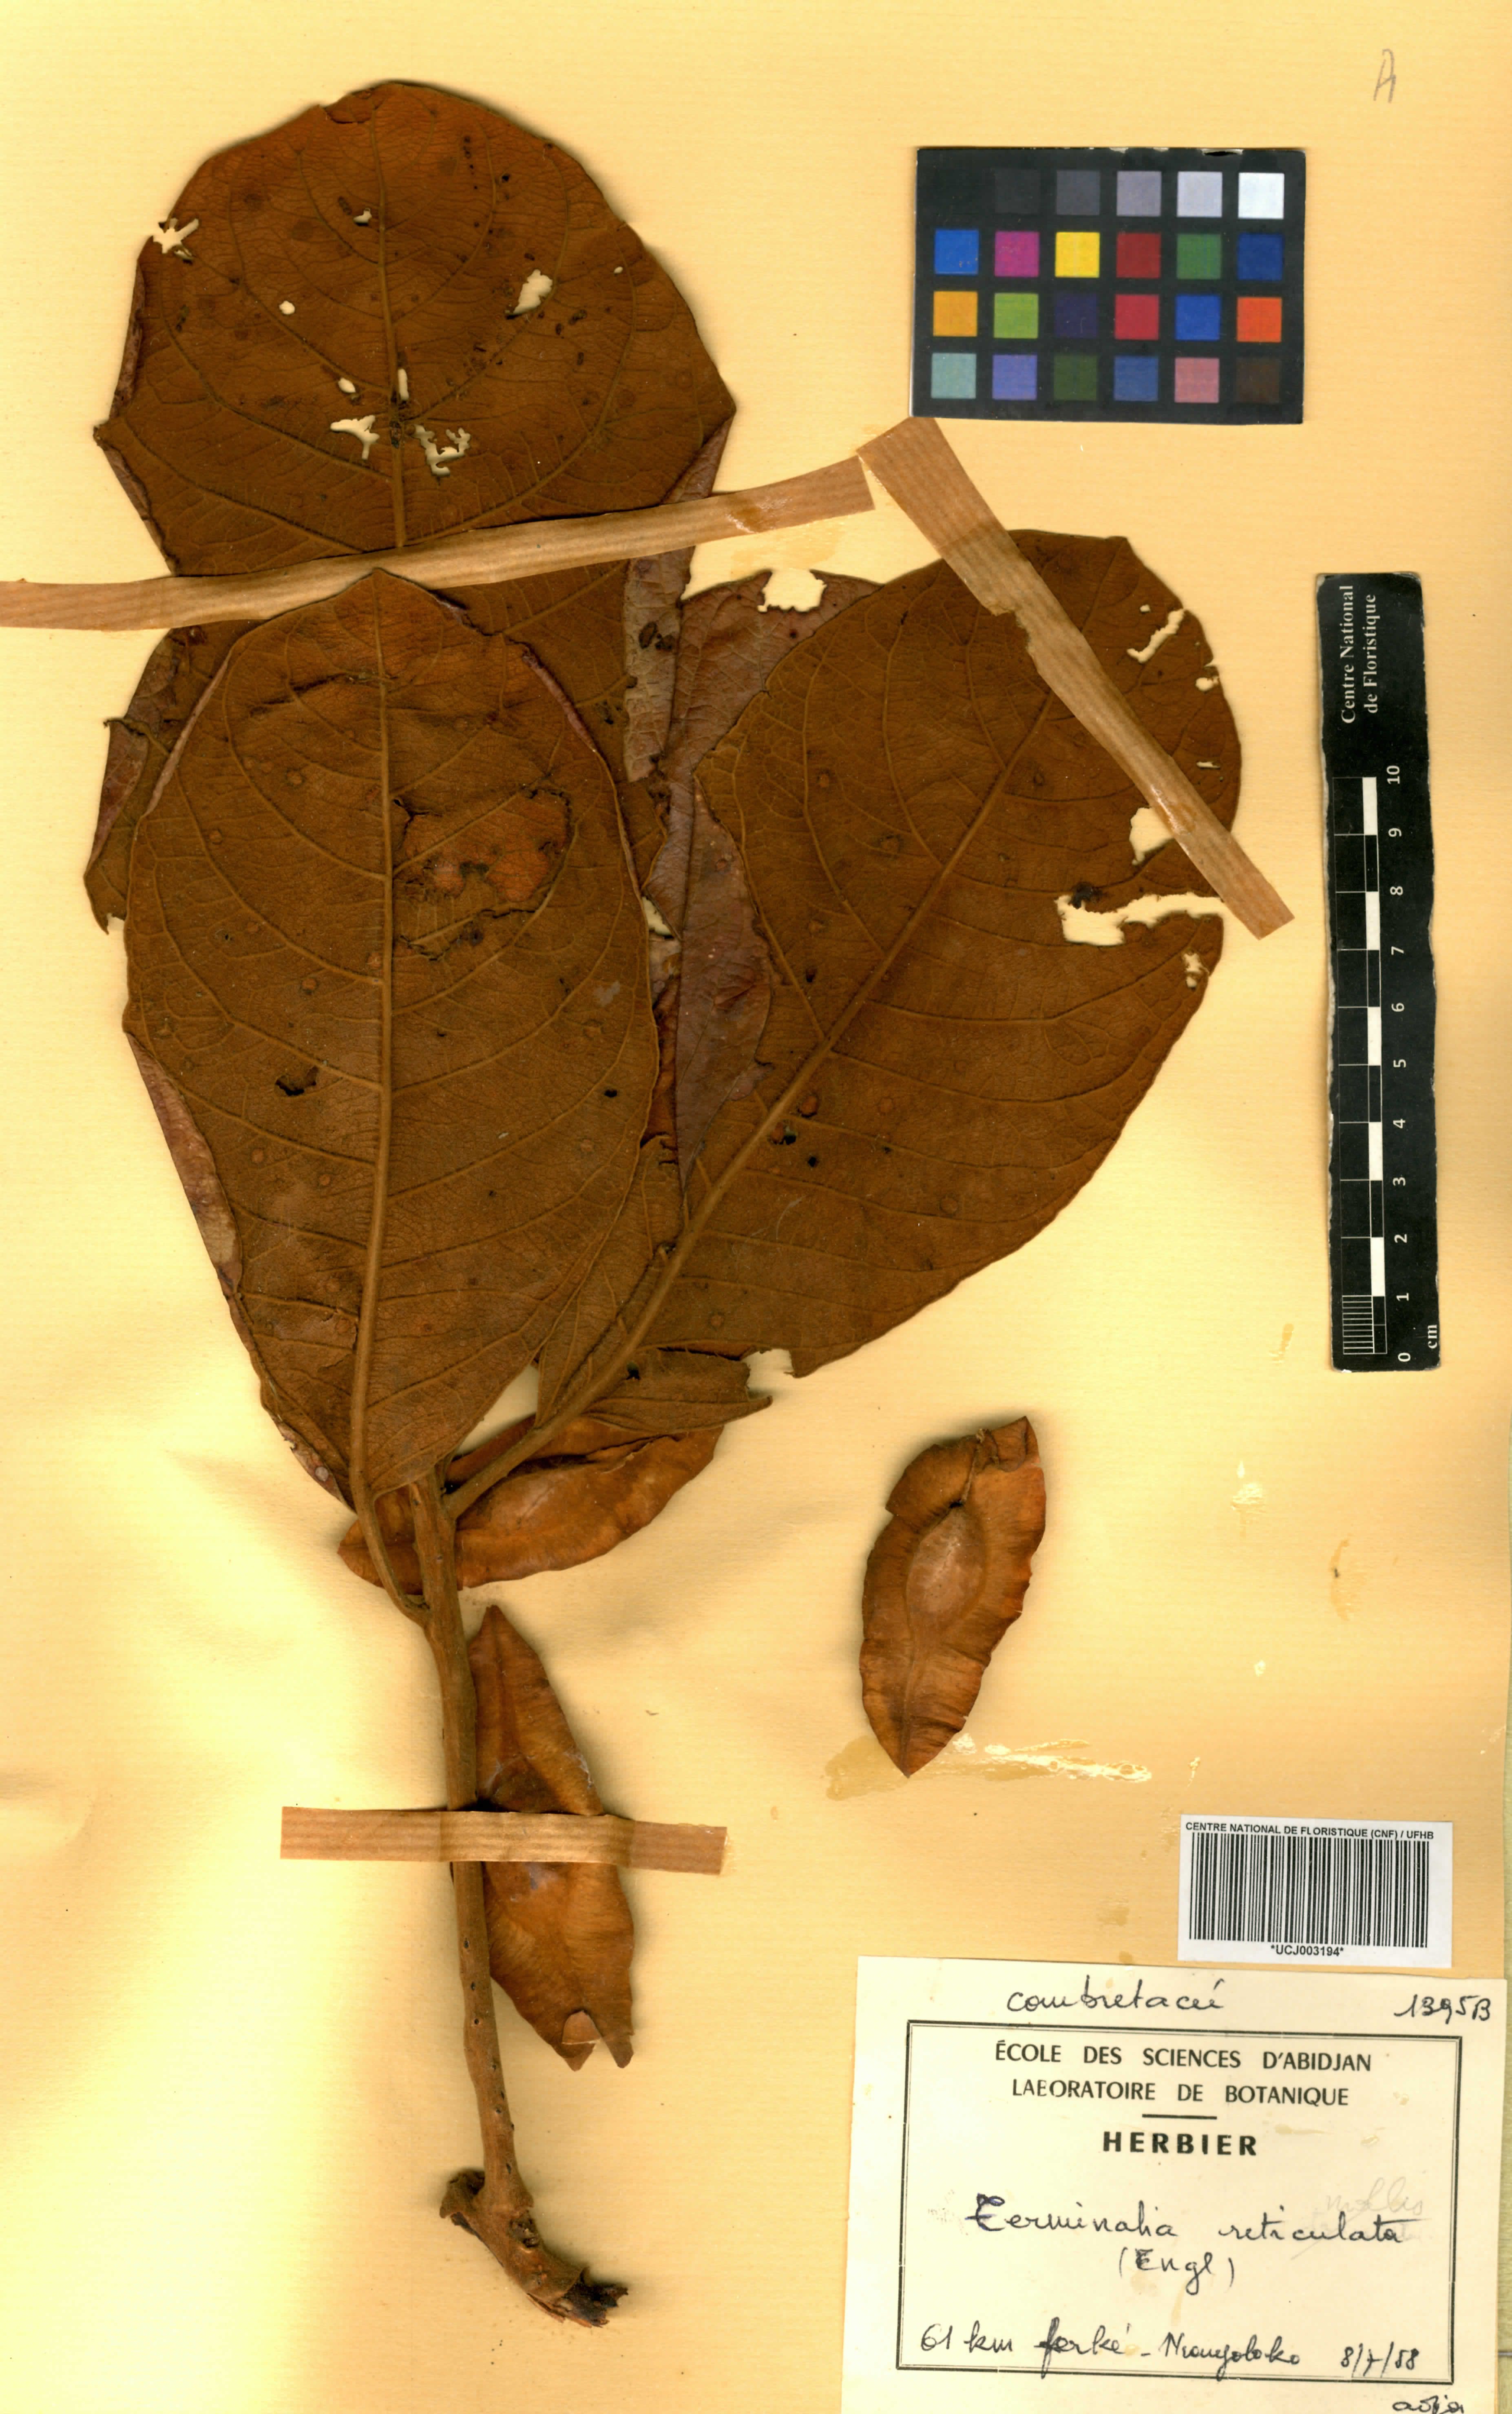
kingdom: Plantae
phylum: Tracheophyta
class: Magnoliopsida
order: Myrtales
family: Combretaceae
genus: Terminalia
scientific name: Terminalia mollis
